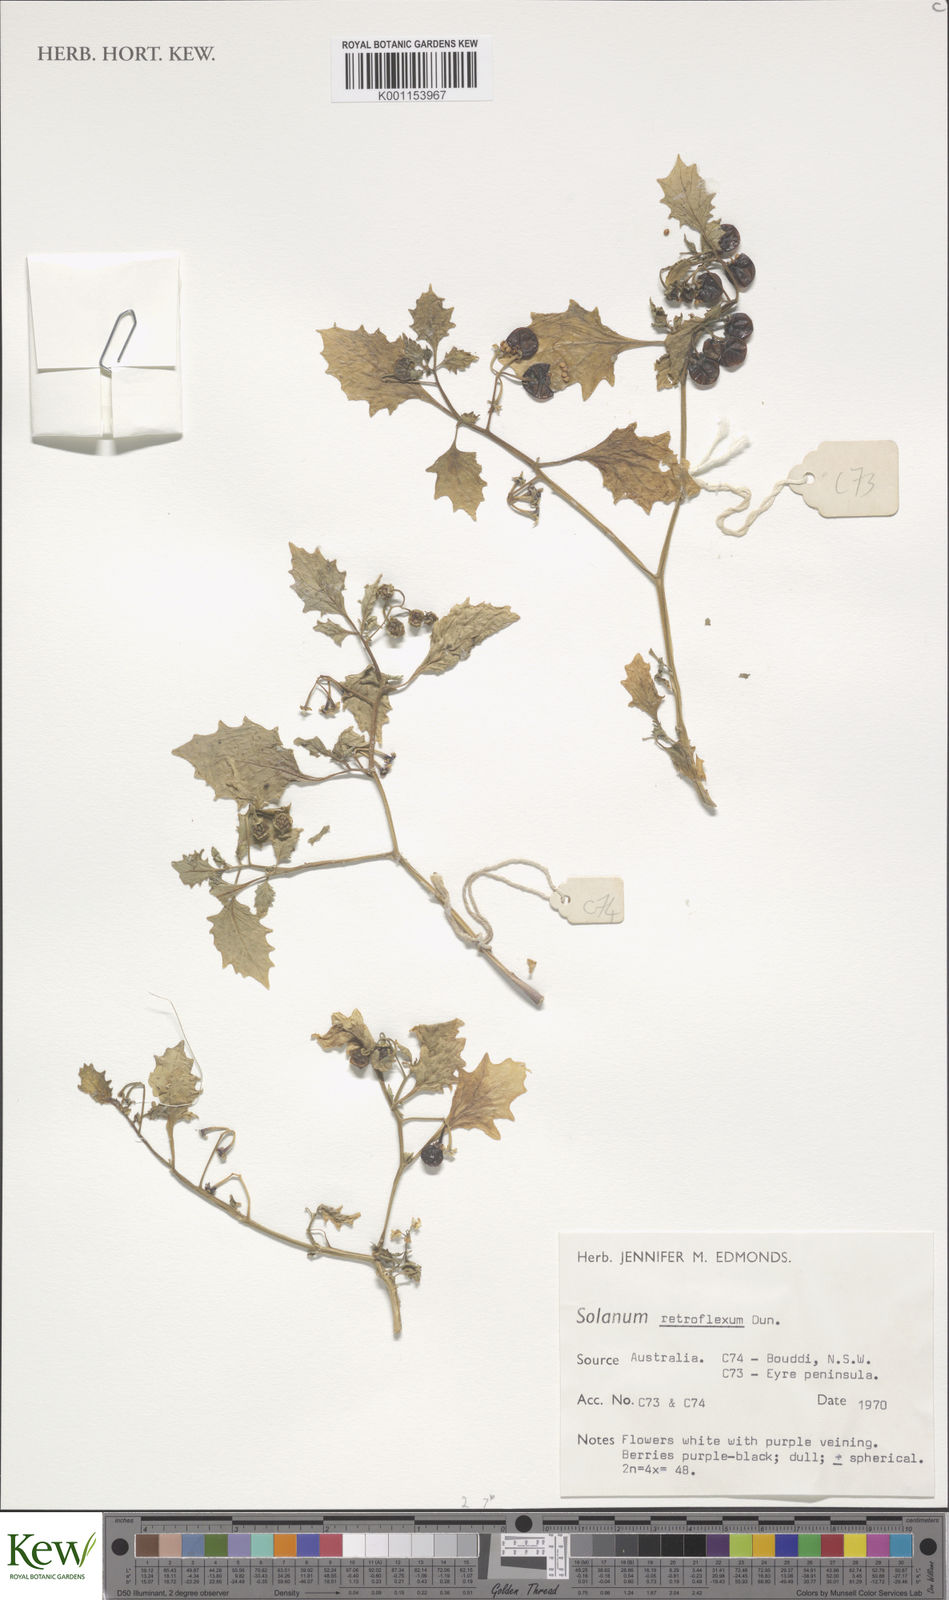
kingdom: Plantae
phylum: Tracheophyta
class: Magnoliopsida
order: Solanales
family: Solanaceae
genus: Solanum
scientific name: Solanum retroflexum
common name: Wonderberry
